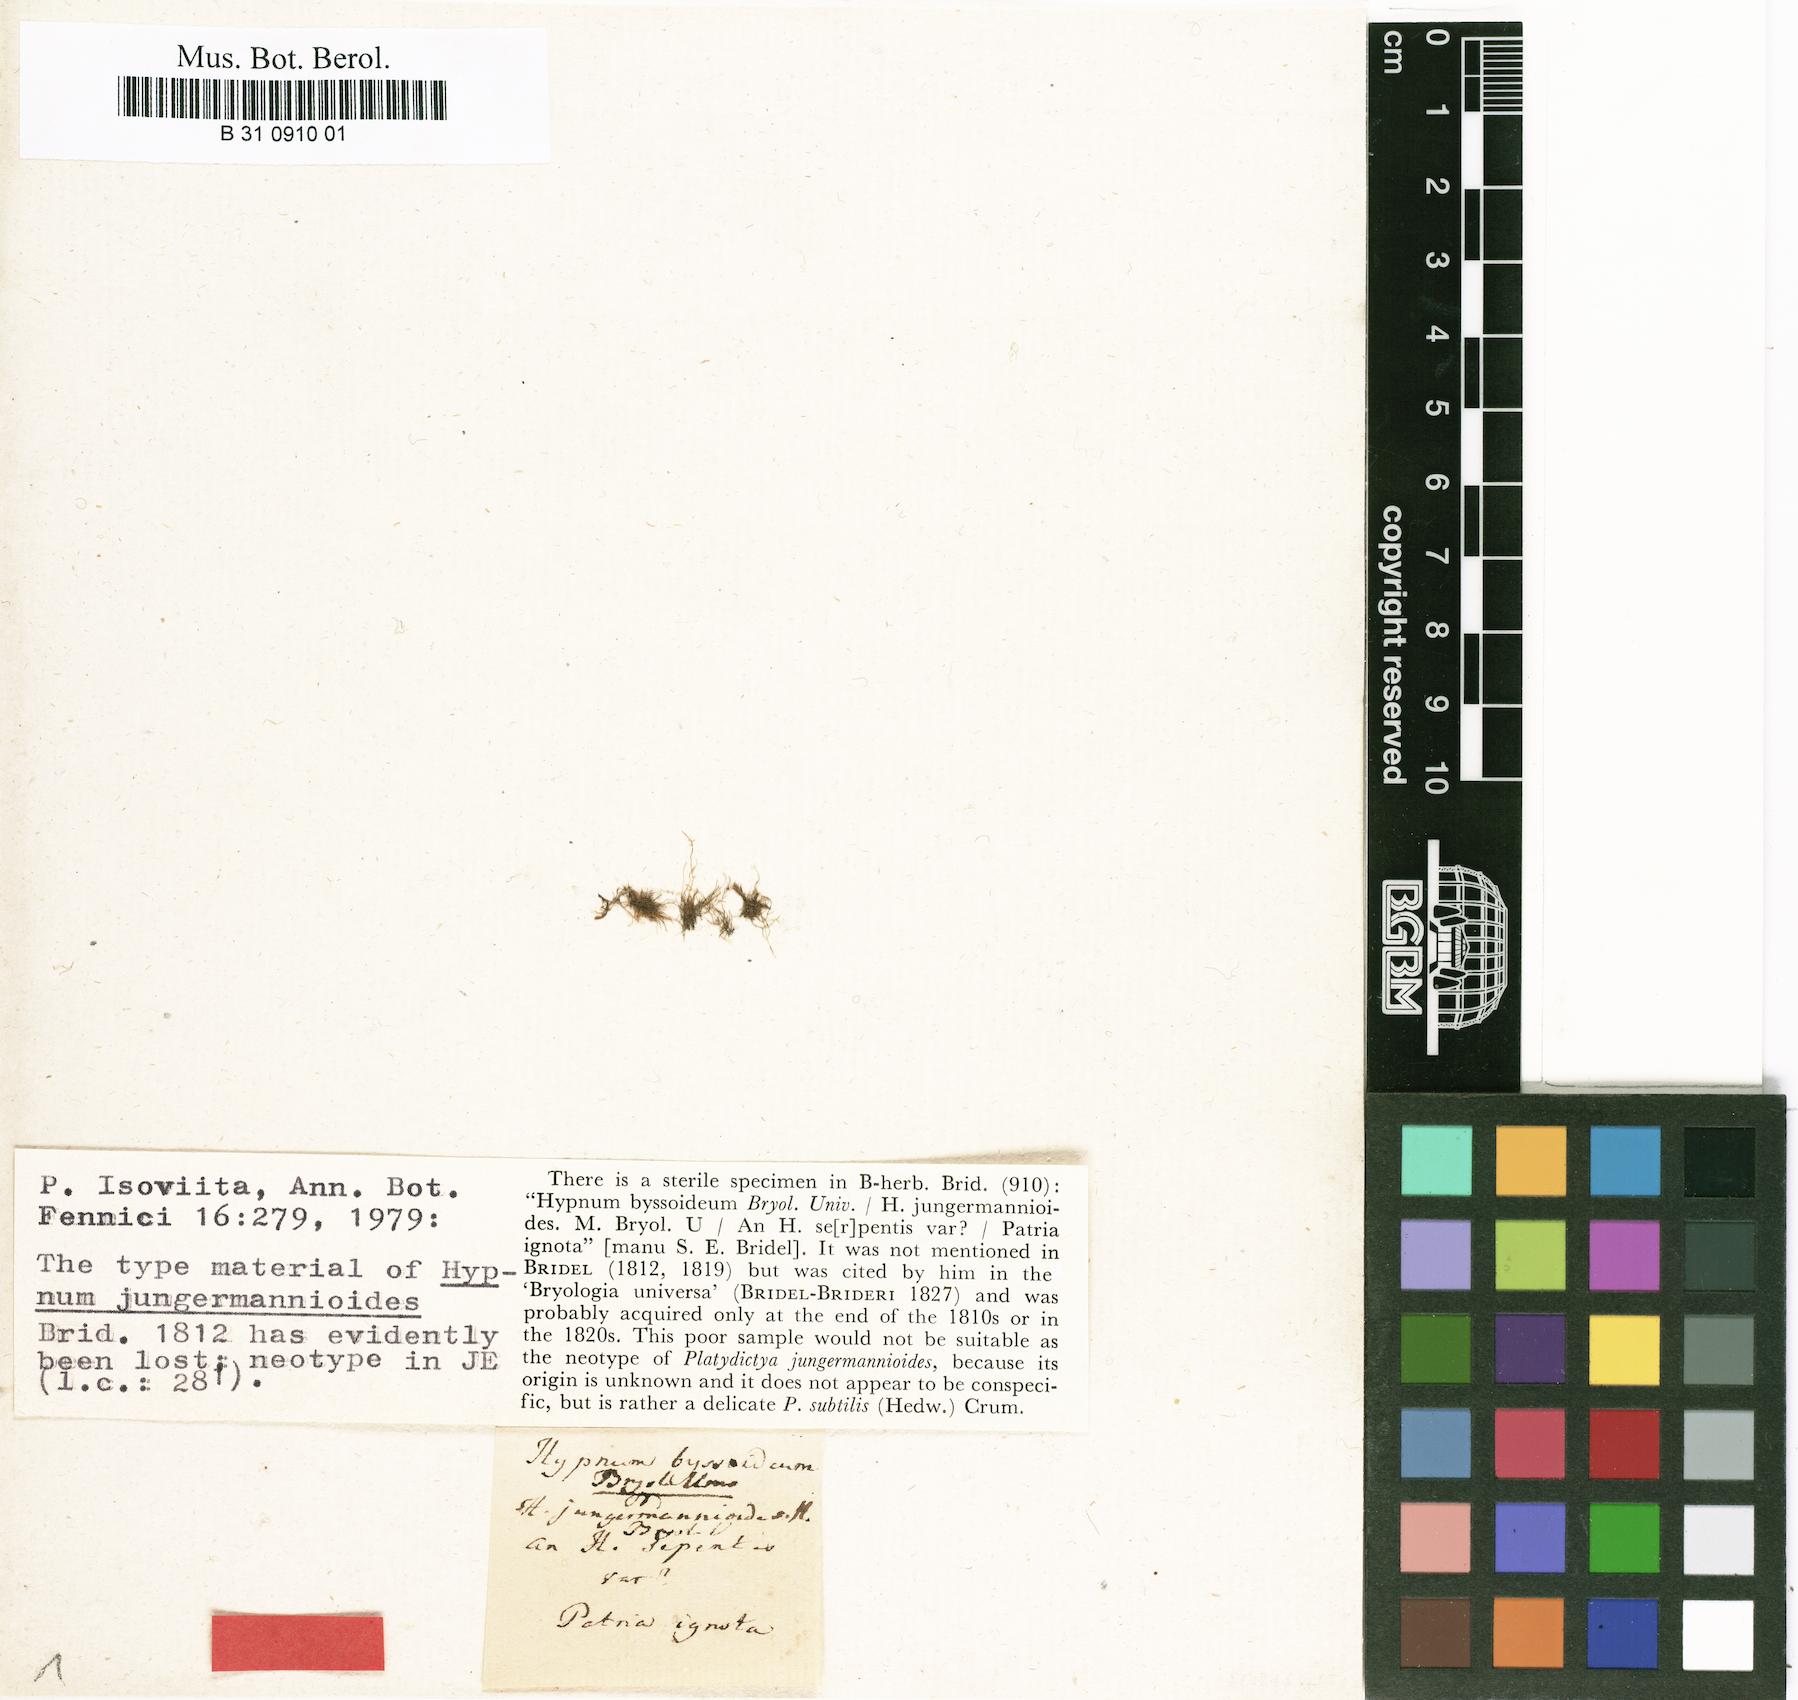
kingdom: Plantae
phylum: Bryophyta
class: Bryopsida
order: Hypnales
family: Plagiotheciaceae
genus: Platydictya
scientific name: Platydictya jungermannioides
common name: False willow moss
